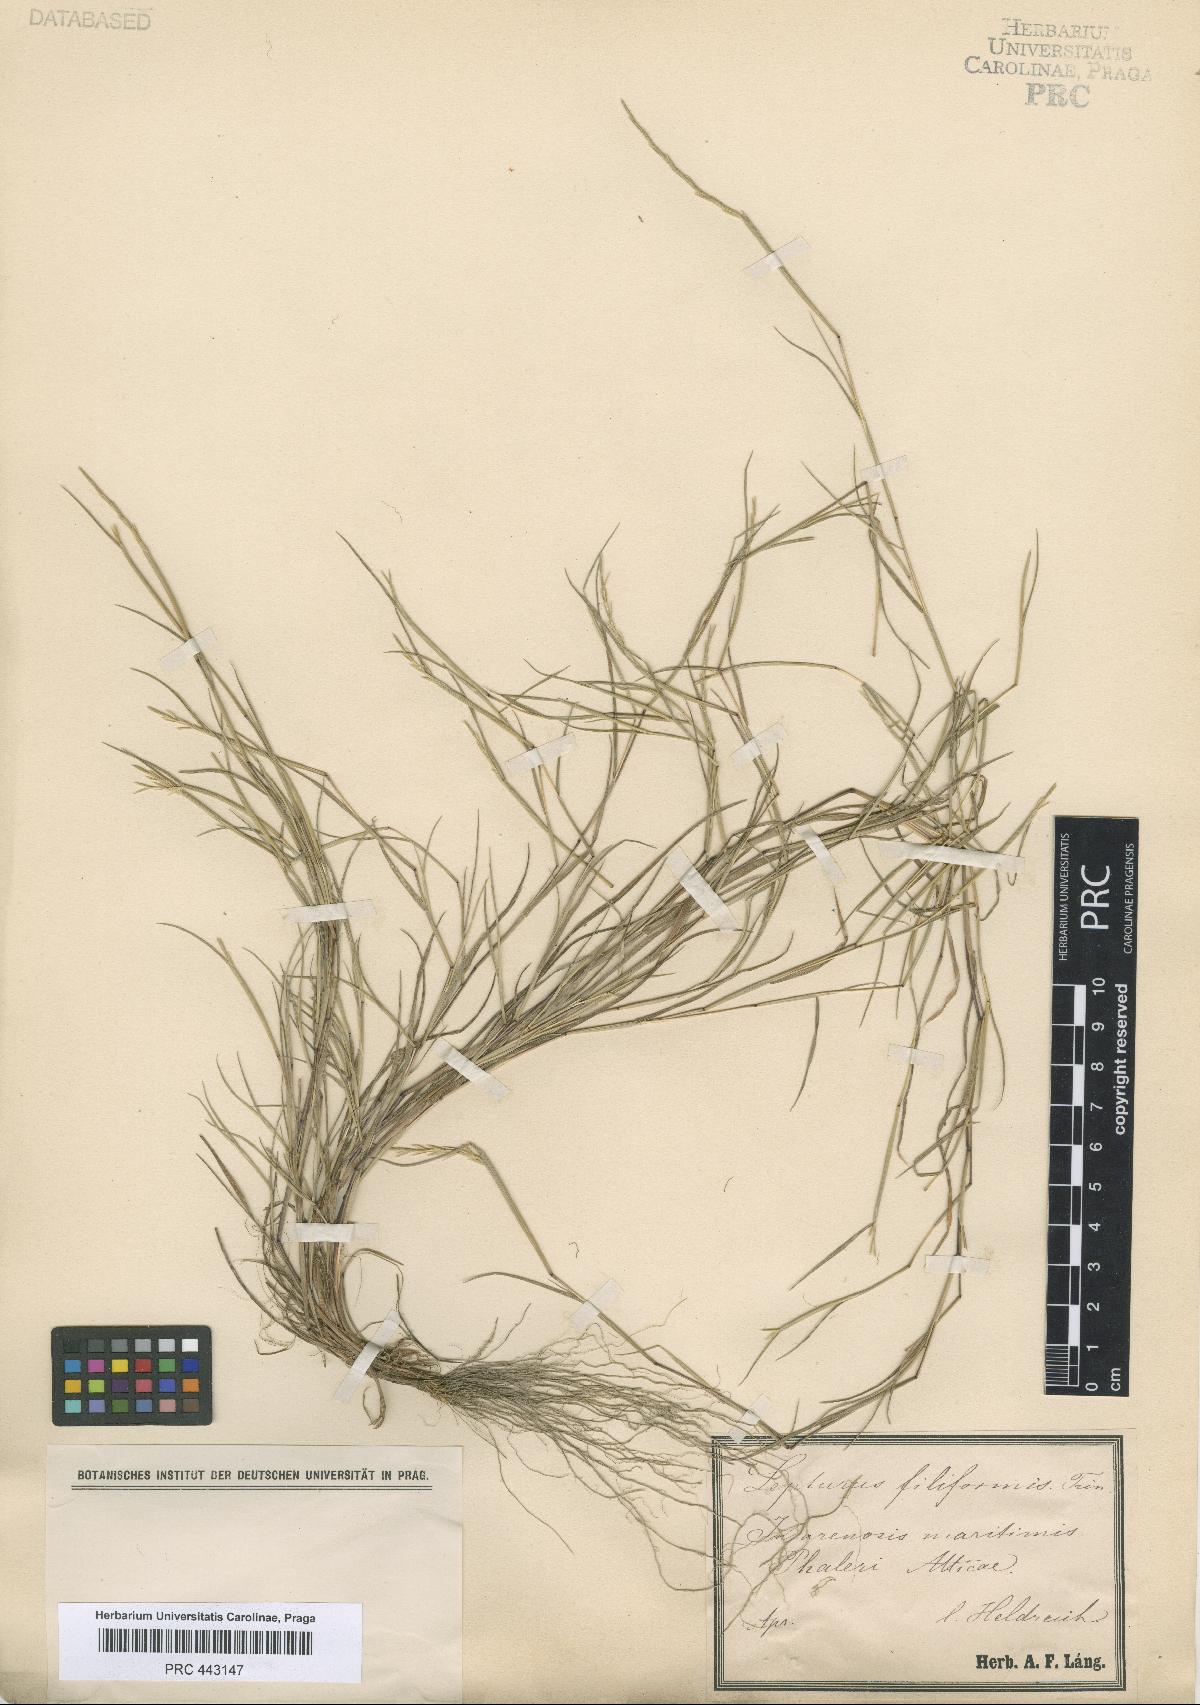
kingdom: Plantae
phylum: Tracheophyta
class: Liliopsida
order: Poales
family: Poaceae
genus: Parapholis
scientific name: Parapholis filiformis
